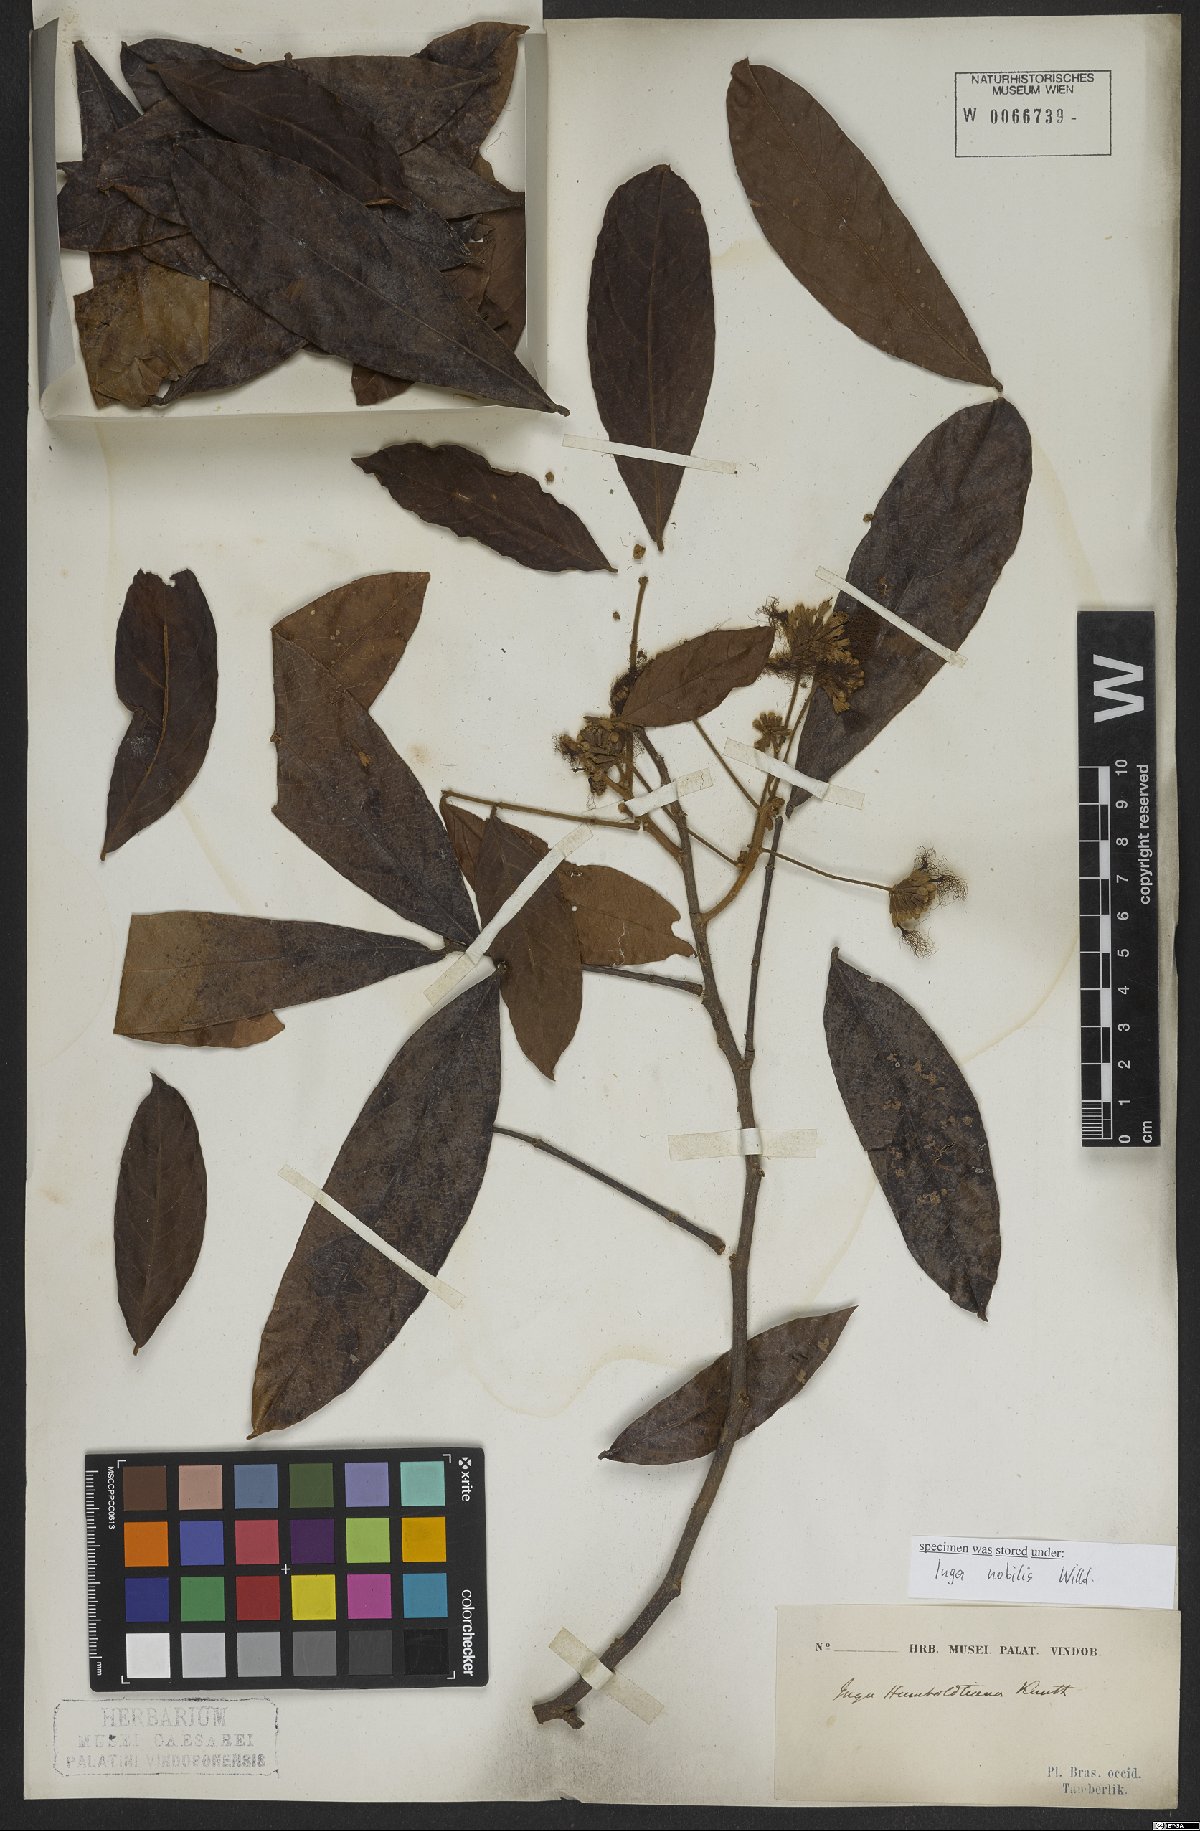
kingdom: Plantae
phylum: Tracheophyta
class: Magnoliopsida
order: Fabales
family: Fabaceae
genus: Inga
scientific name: Inga nobilis
